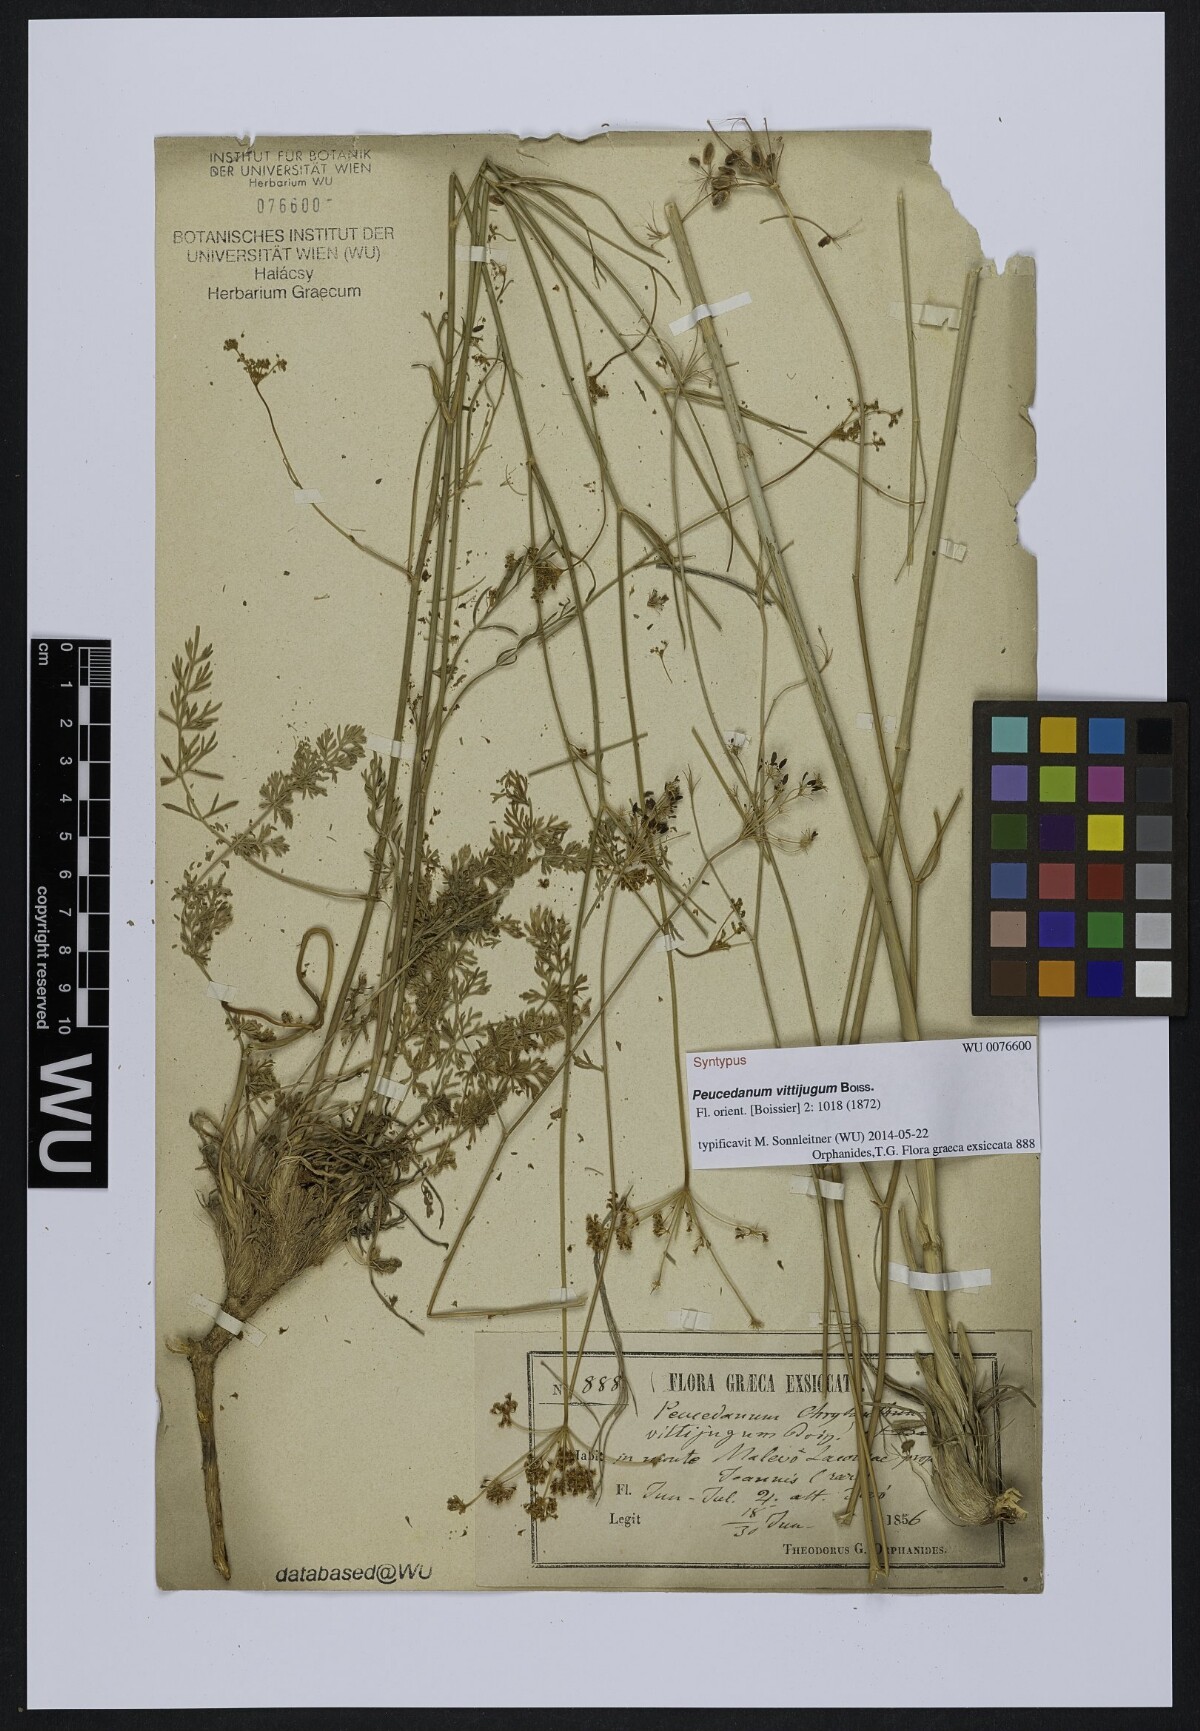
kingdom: Plantae
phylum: Tracheophyta
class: Magnoliopsida
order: Apiales
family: Apiaceae
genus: Dichoropetalum
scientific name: Dichoropetalum vittijugum
